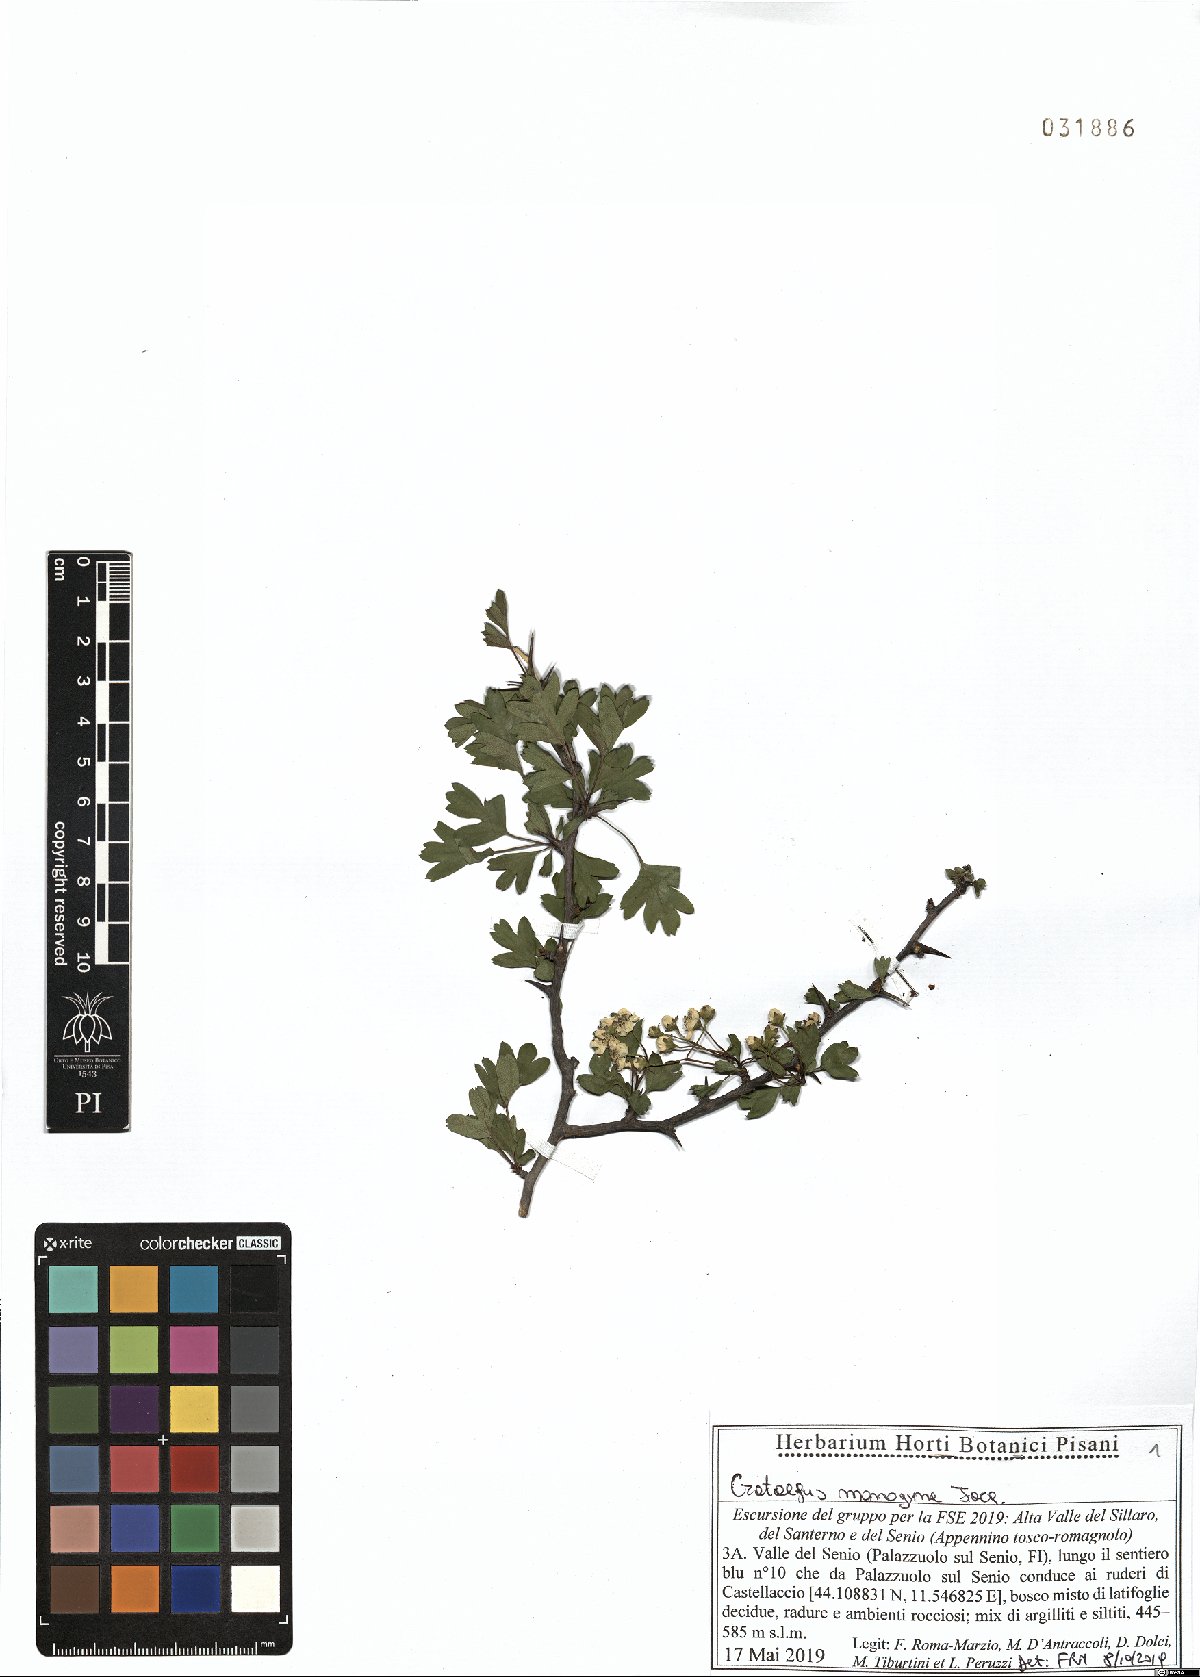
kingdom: Plantae
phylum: Tracheophyta
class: Magnoliopsida
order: Rosales
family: Rosaceae
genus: Crataegus
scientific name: Crataegus monogyna
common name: Hawthorn
